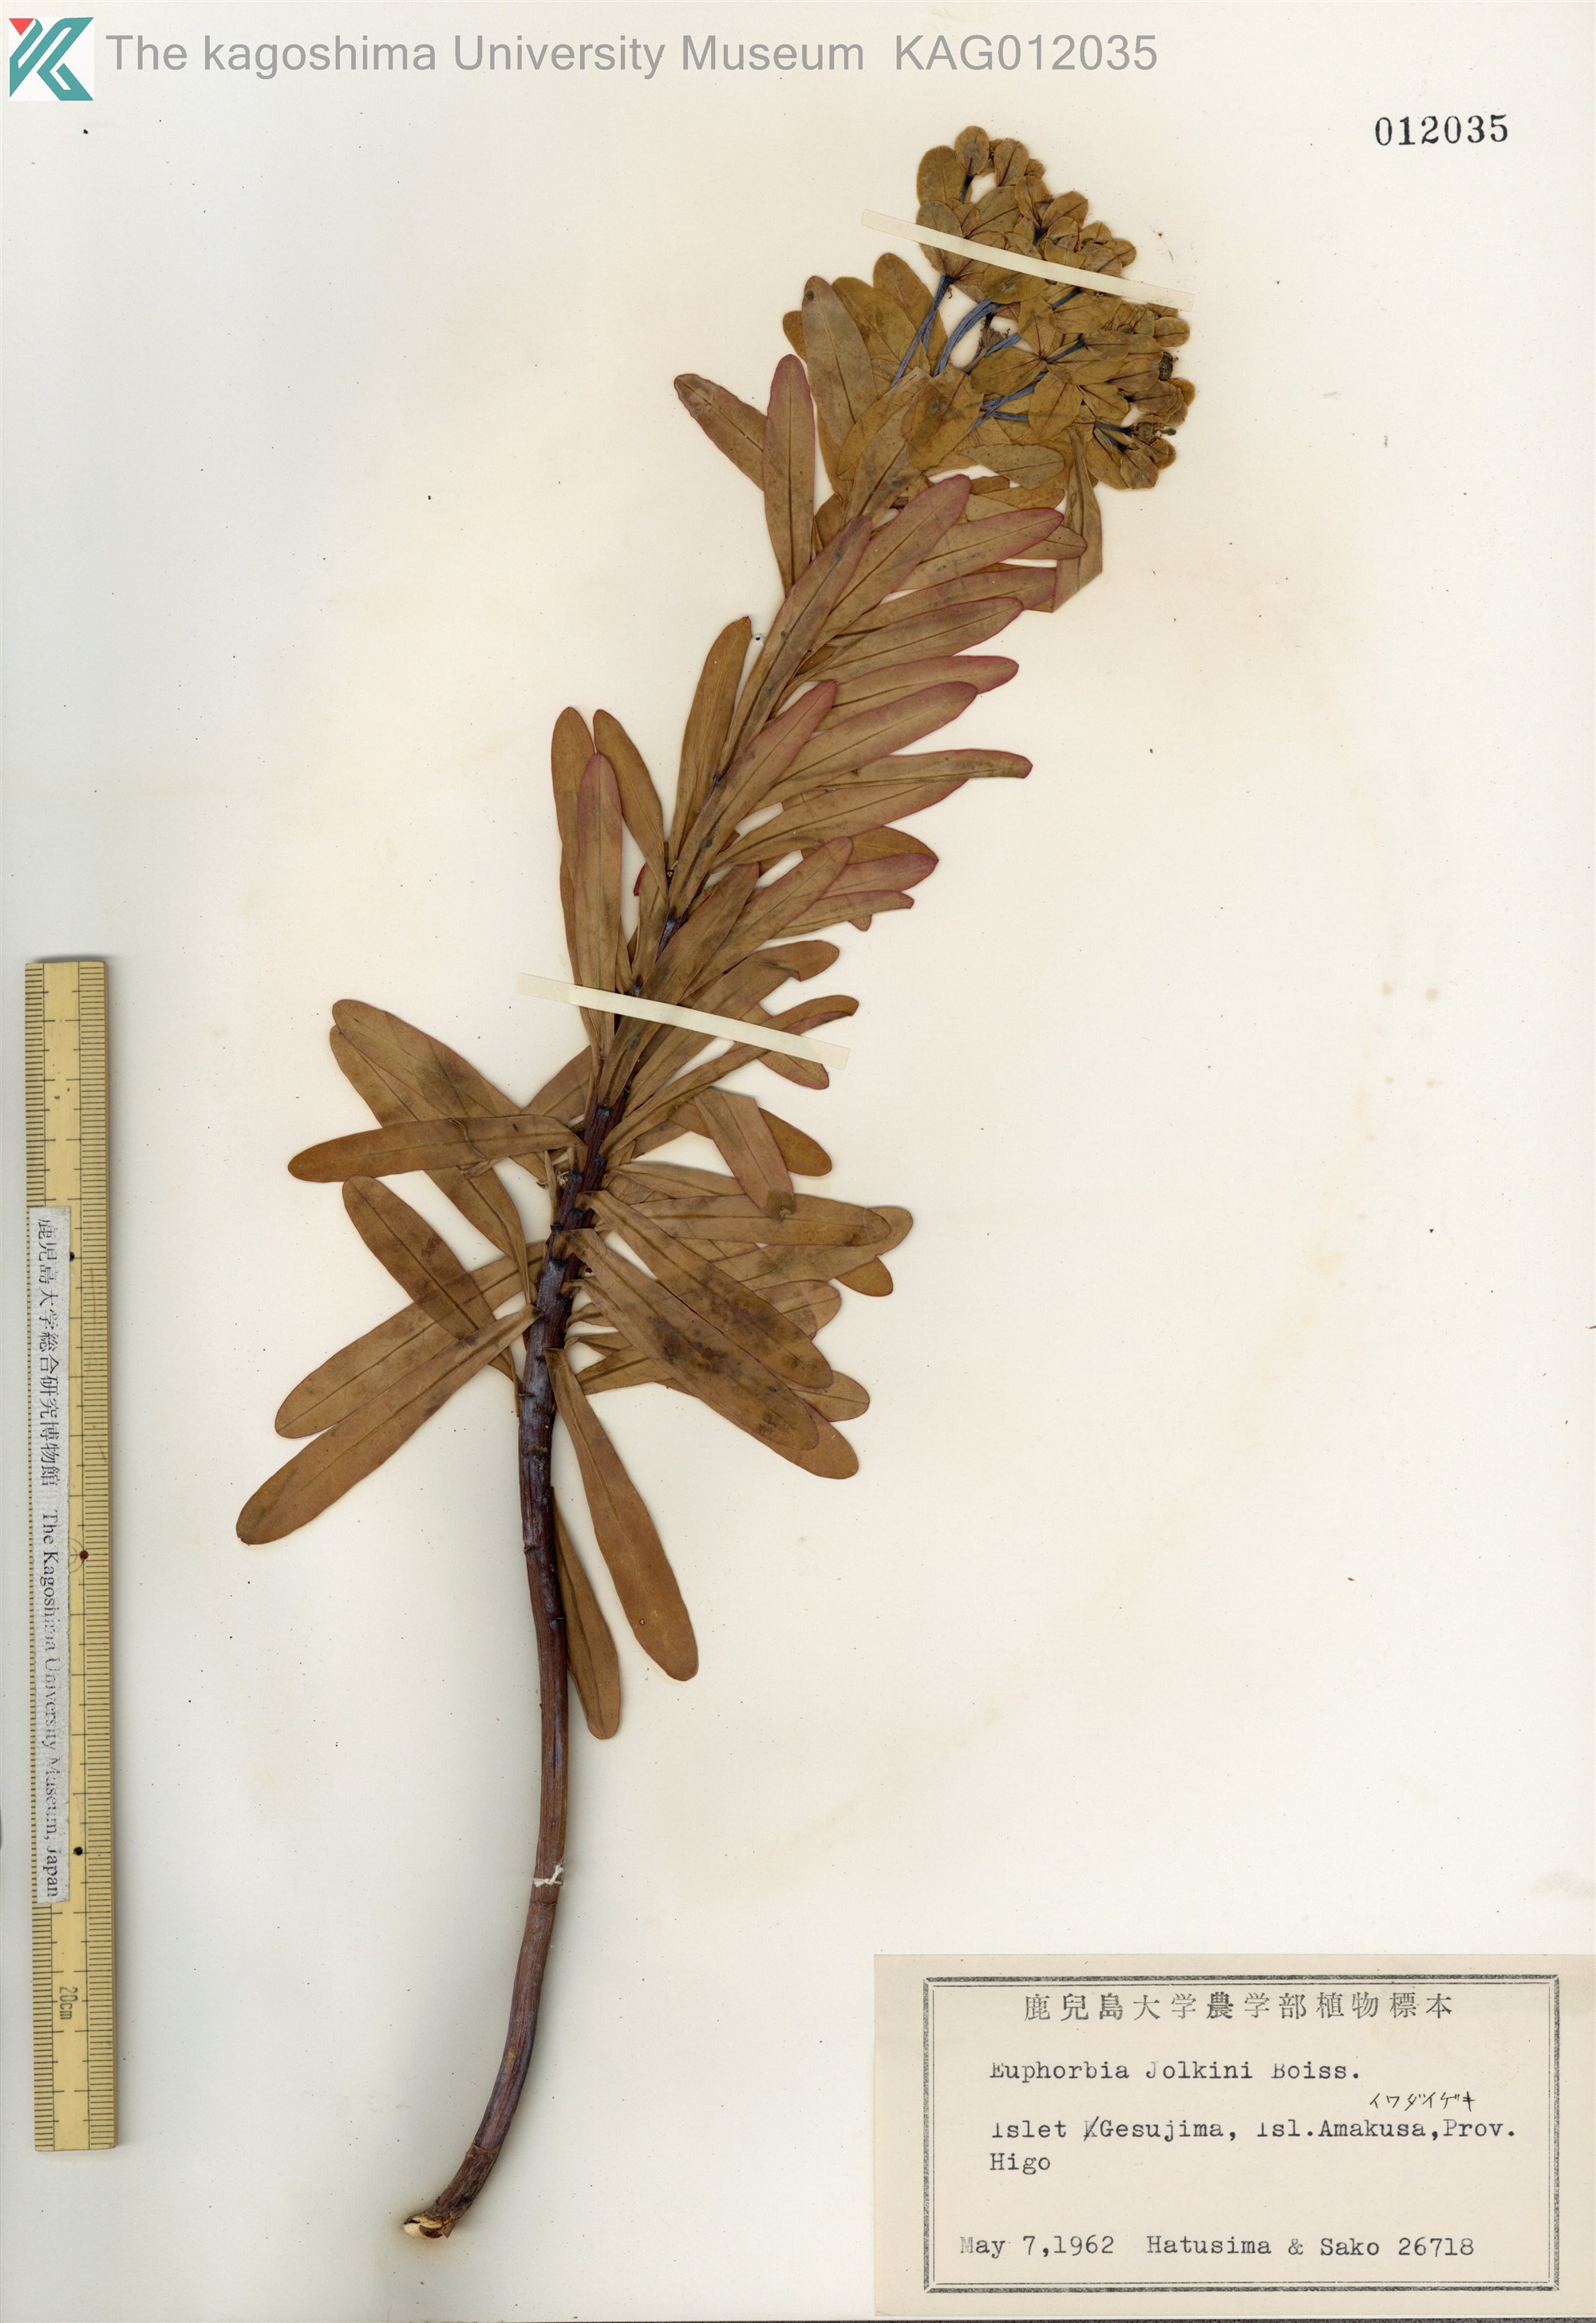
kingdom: Plantae
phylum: Tracheophyta
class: Magnoliopsida
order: Malpighiales
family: Euphorbiaceae
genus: Euphorbia
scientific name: Euphorbia jolkinii
